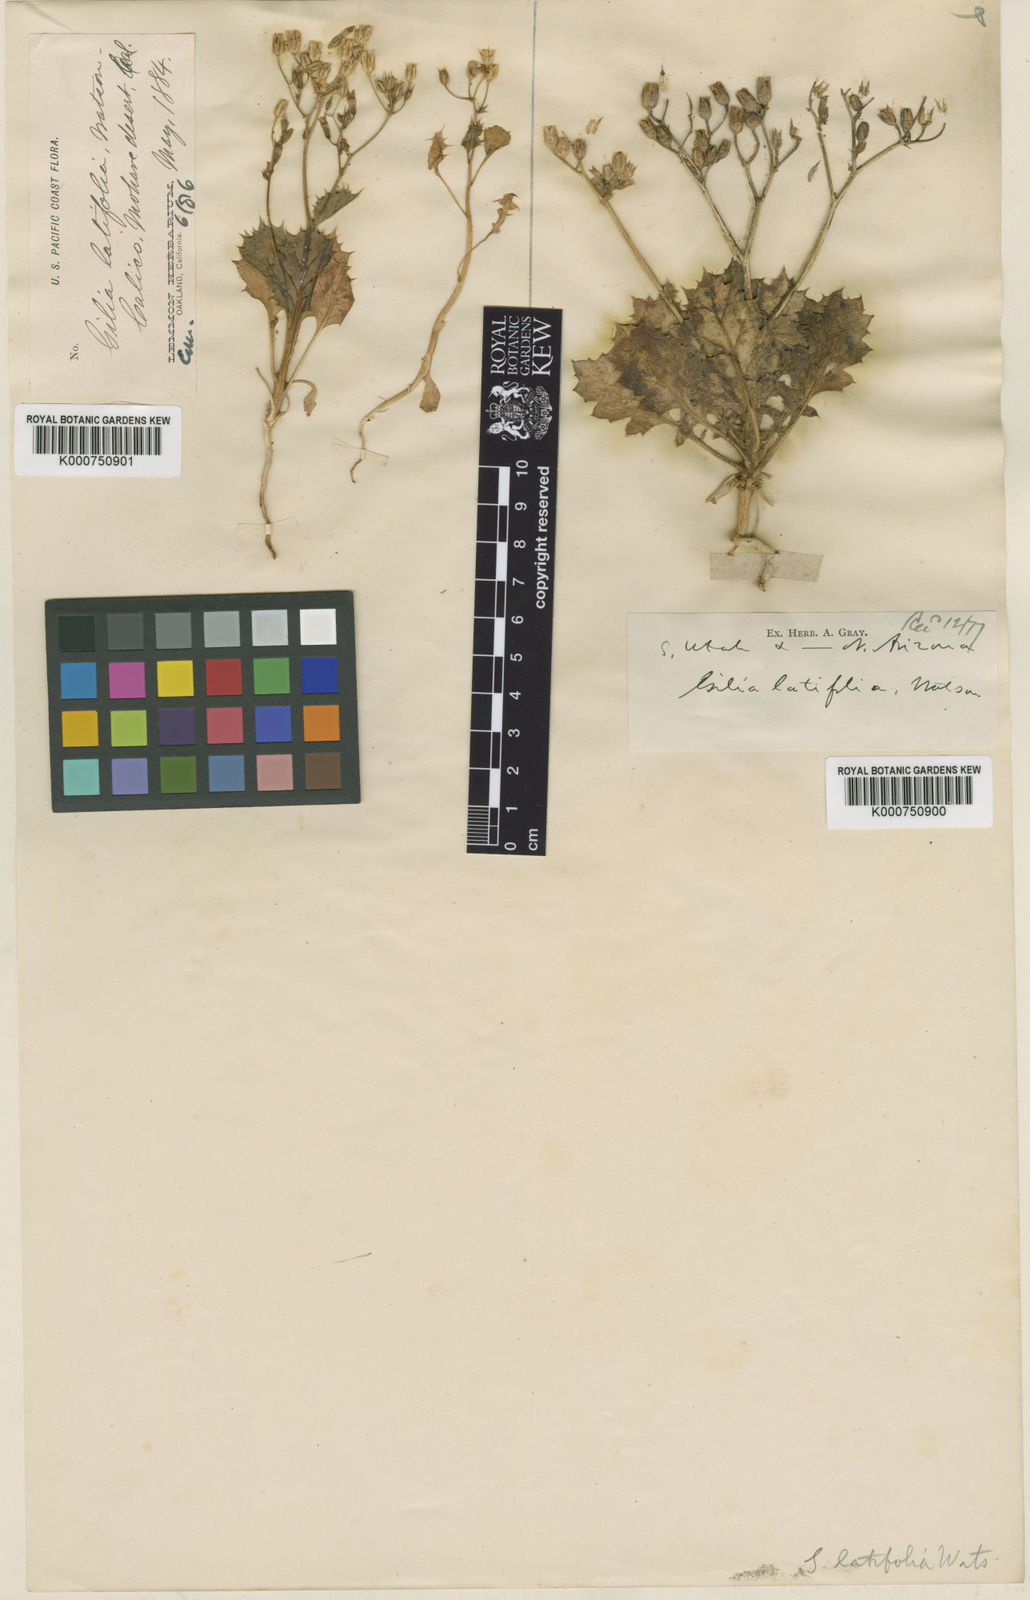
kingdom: Plantae
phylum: Tracheophyta
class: Magnoliopsida
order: Ericales
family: Polemoniaceae
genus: Aliciella
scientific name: Aliciella latifolia
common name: Broad-leaf gilia
